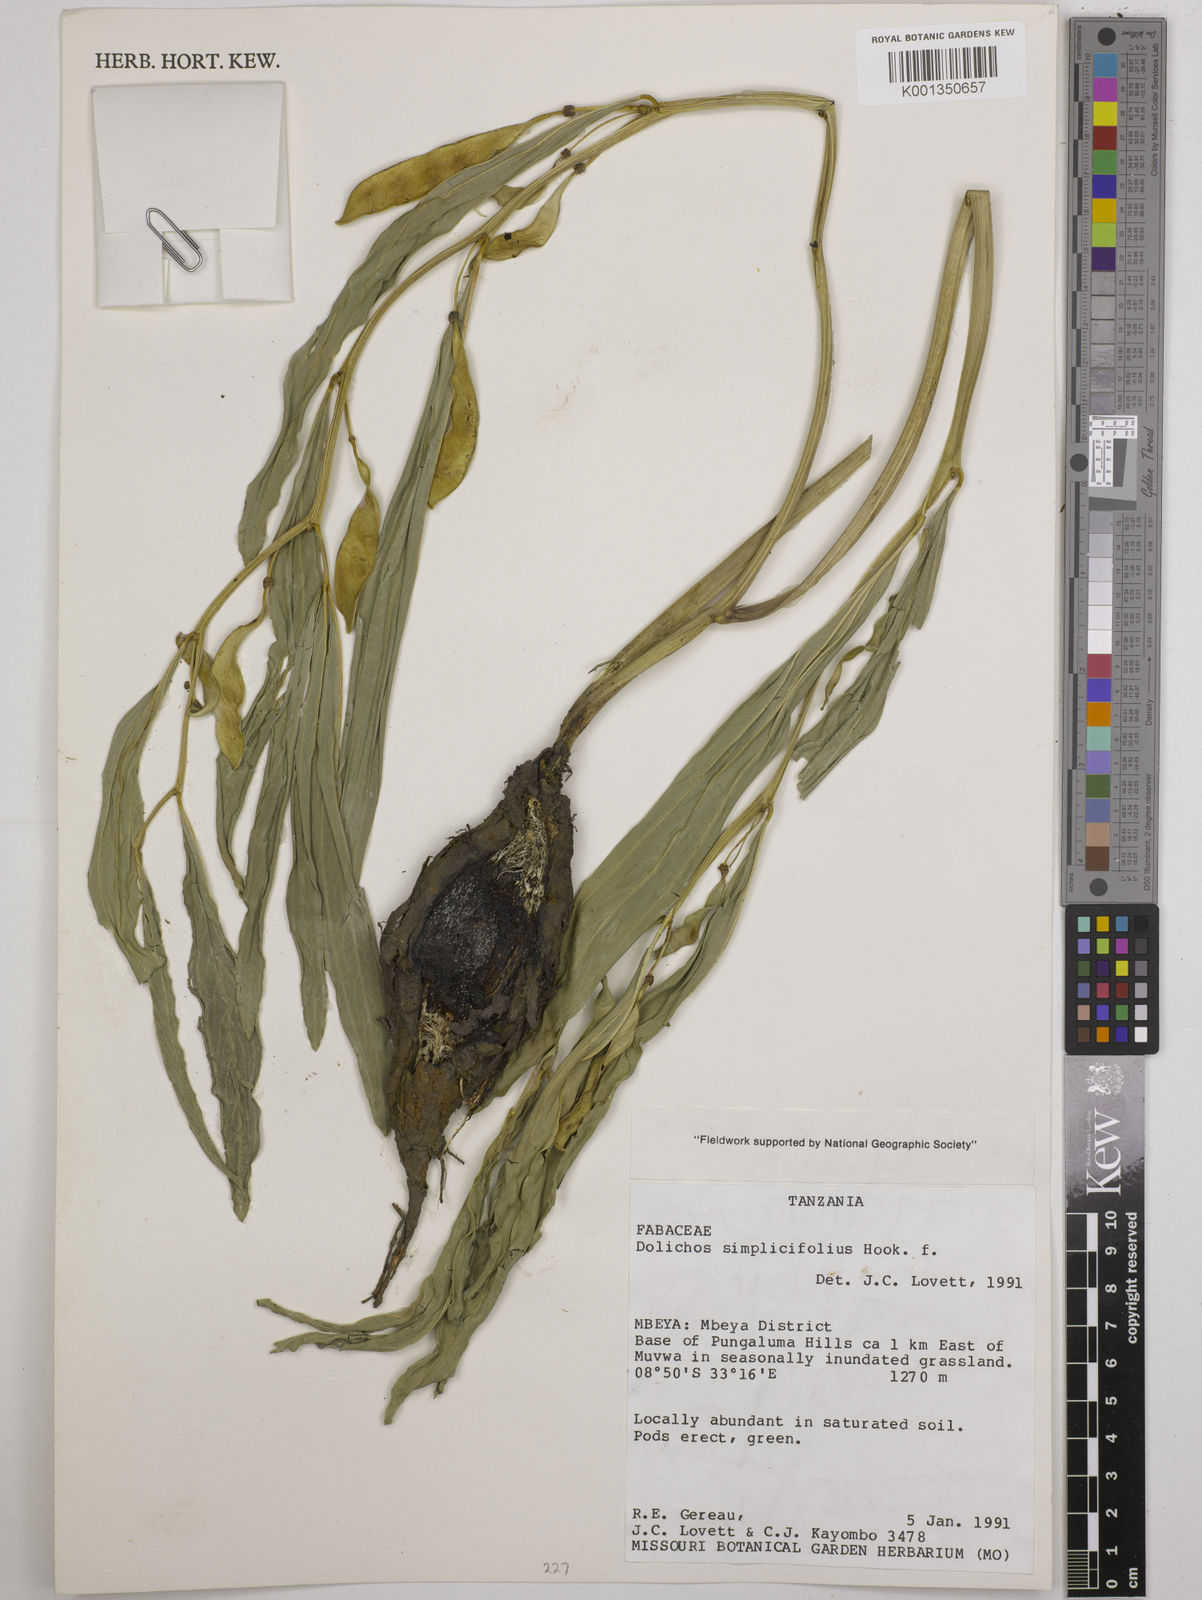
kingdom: Plantae
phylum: Tracheophyta
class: Magnoliopsida
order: Fabales
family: Fabaceae
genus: Dolichos
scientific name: Dolichos simplicifolius
